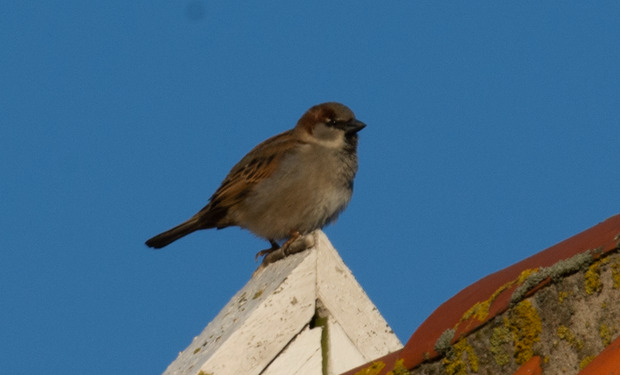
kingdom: Animalia
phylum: Chordata
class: Aves
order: Passeriformes
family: Passeridae
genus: Passer
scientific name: Passer domesticus
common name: Gråspurv
